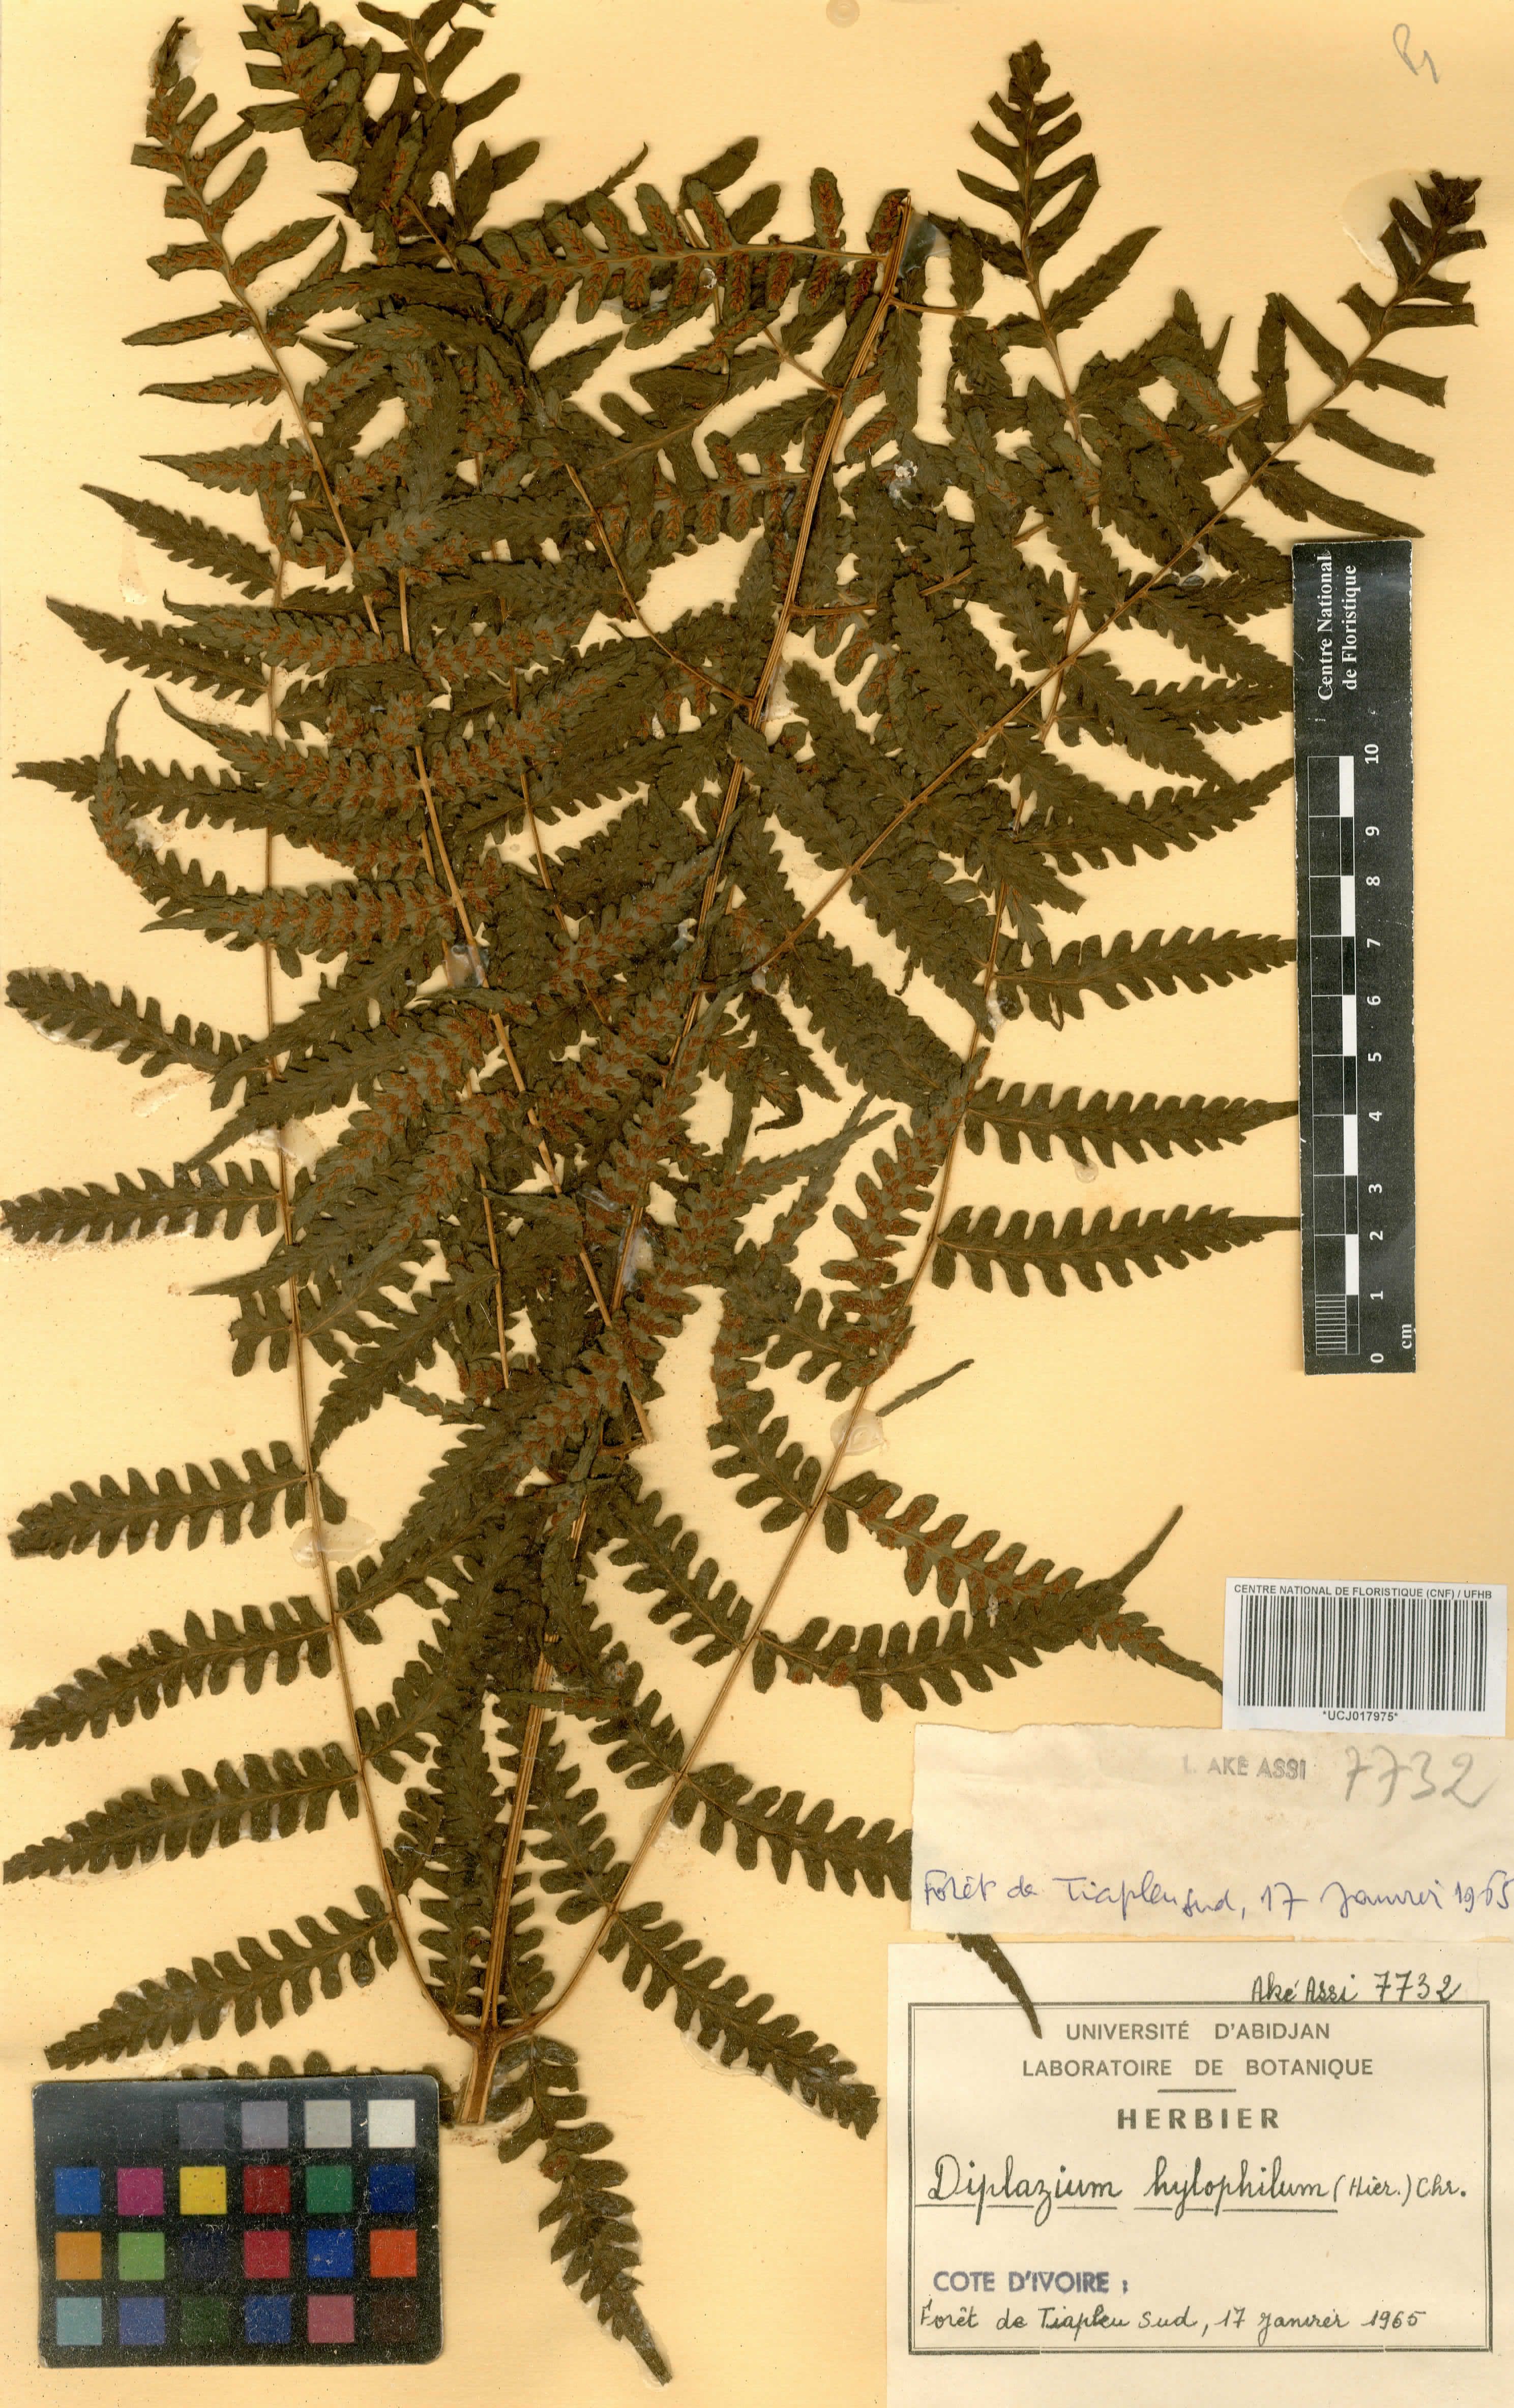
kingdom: Plantae
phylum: Tracheophyta
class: Polypodiopsida
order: Polypodiales
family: Athyriaceae
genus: Diplazium
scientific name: Diplazium nemorale
